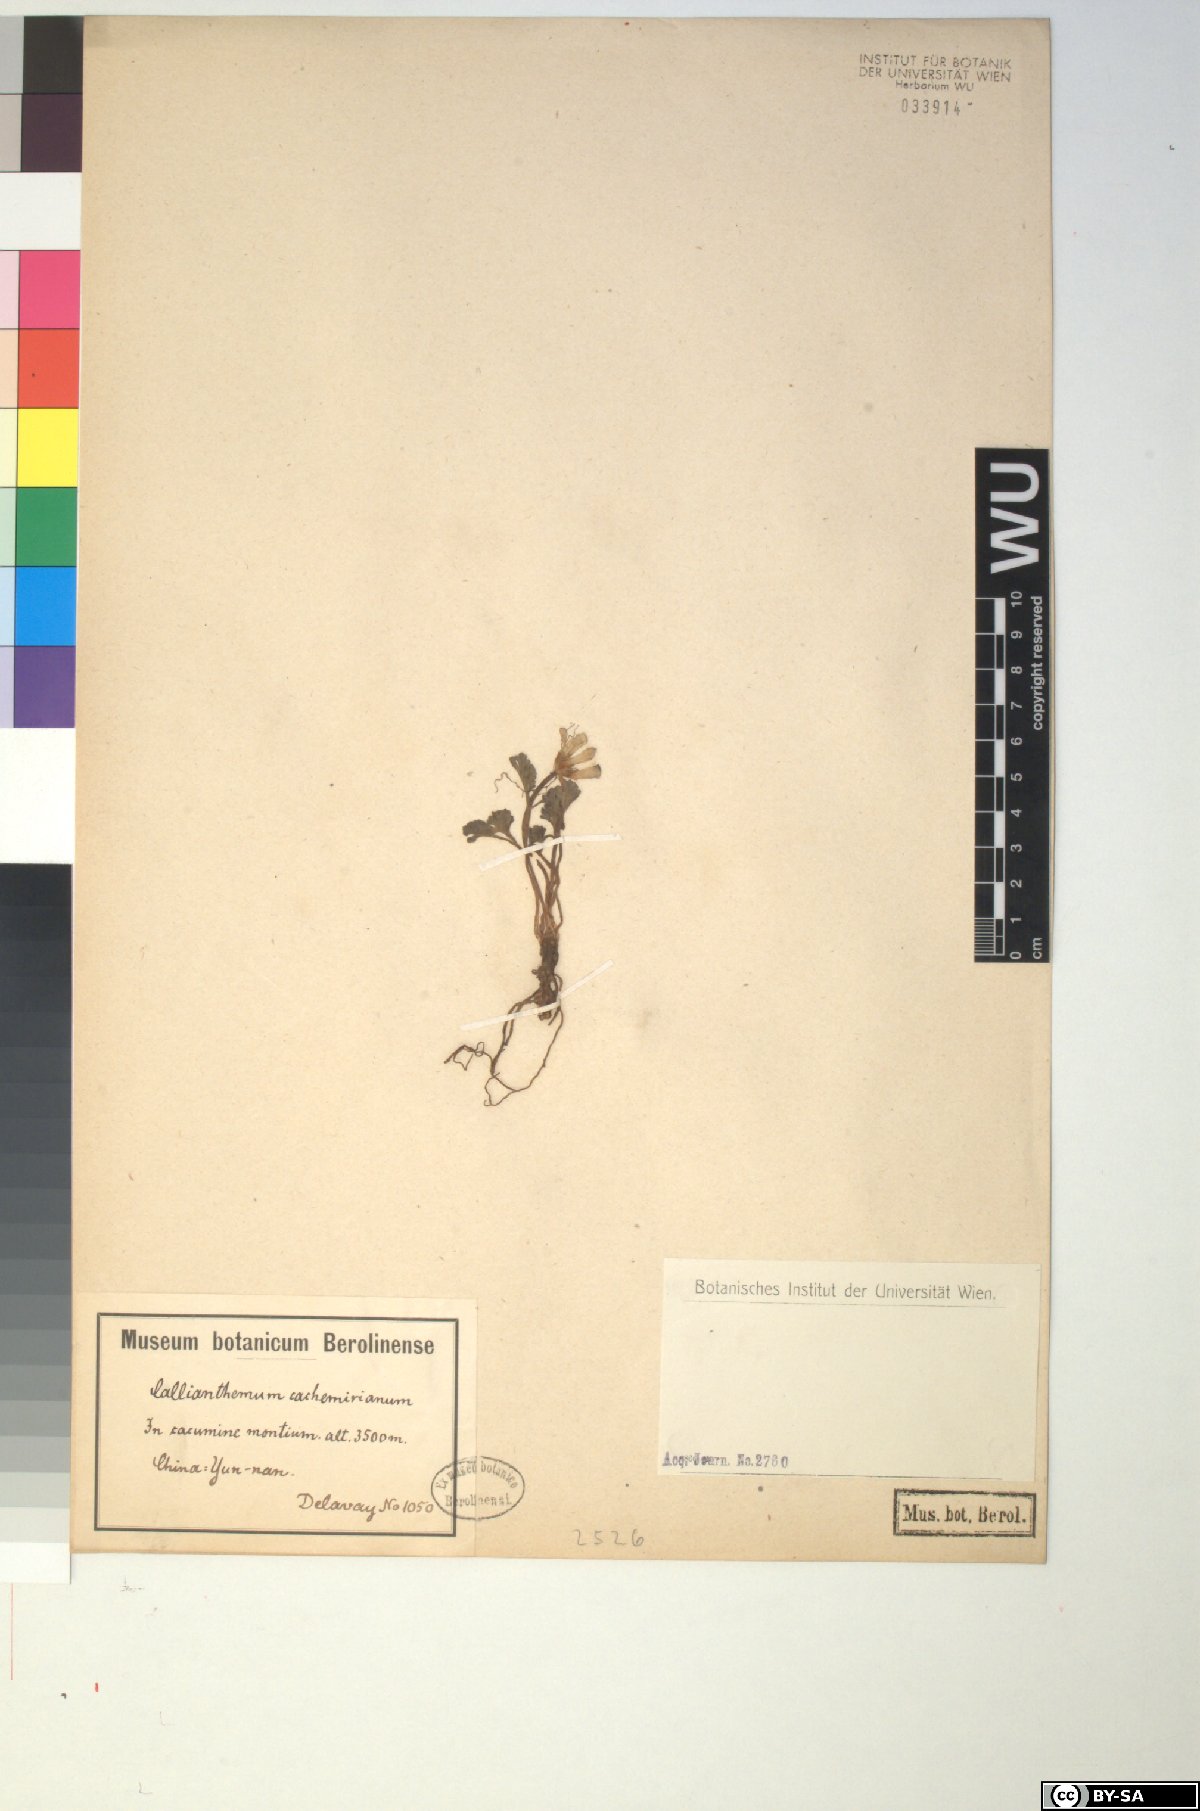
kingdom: Plantae
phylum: Tracheophyta
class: Magnoliopsida
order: Ranunculales
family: Ranunculaceae
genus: Callianthemum
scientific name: Callianthemum pimpinelloides
